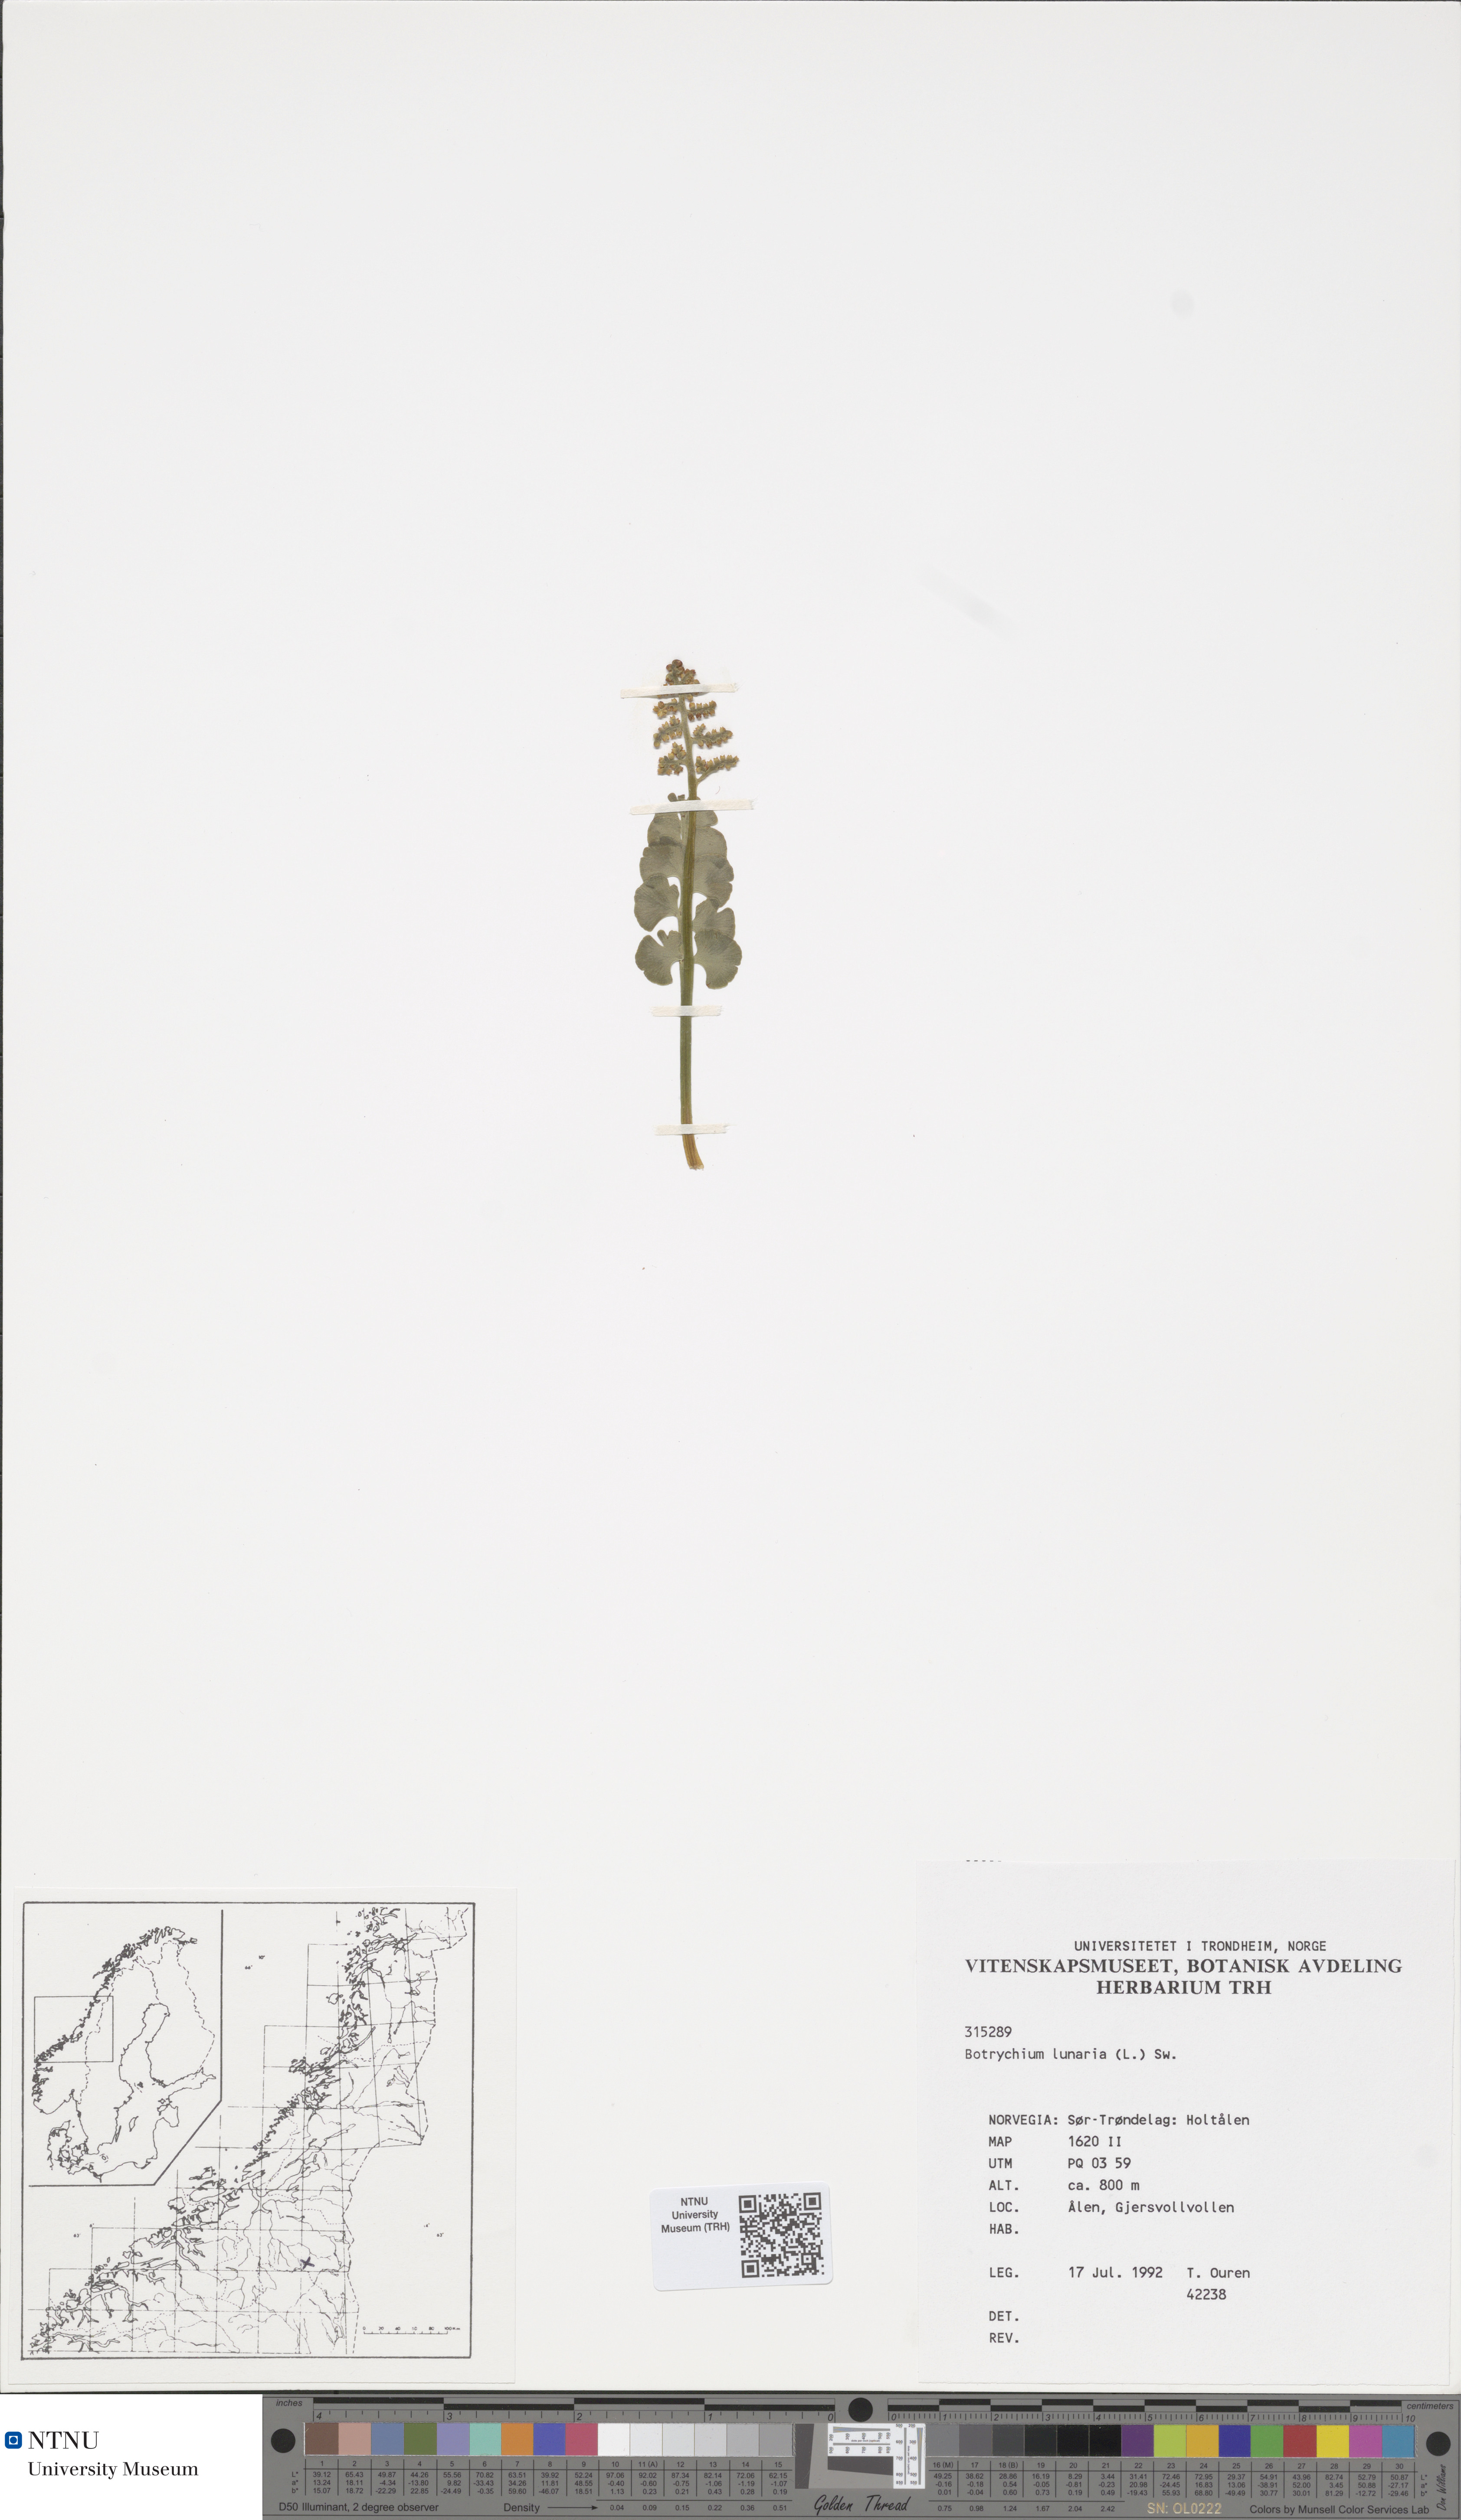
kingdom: Plantae
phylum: Tracheophyta
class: Polypodiopsida
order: Ophioglossales
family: Ophioglossaceae
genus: Botrychium
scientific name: Botrychium lunaria
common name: Moonwort
